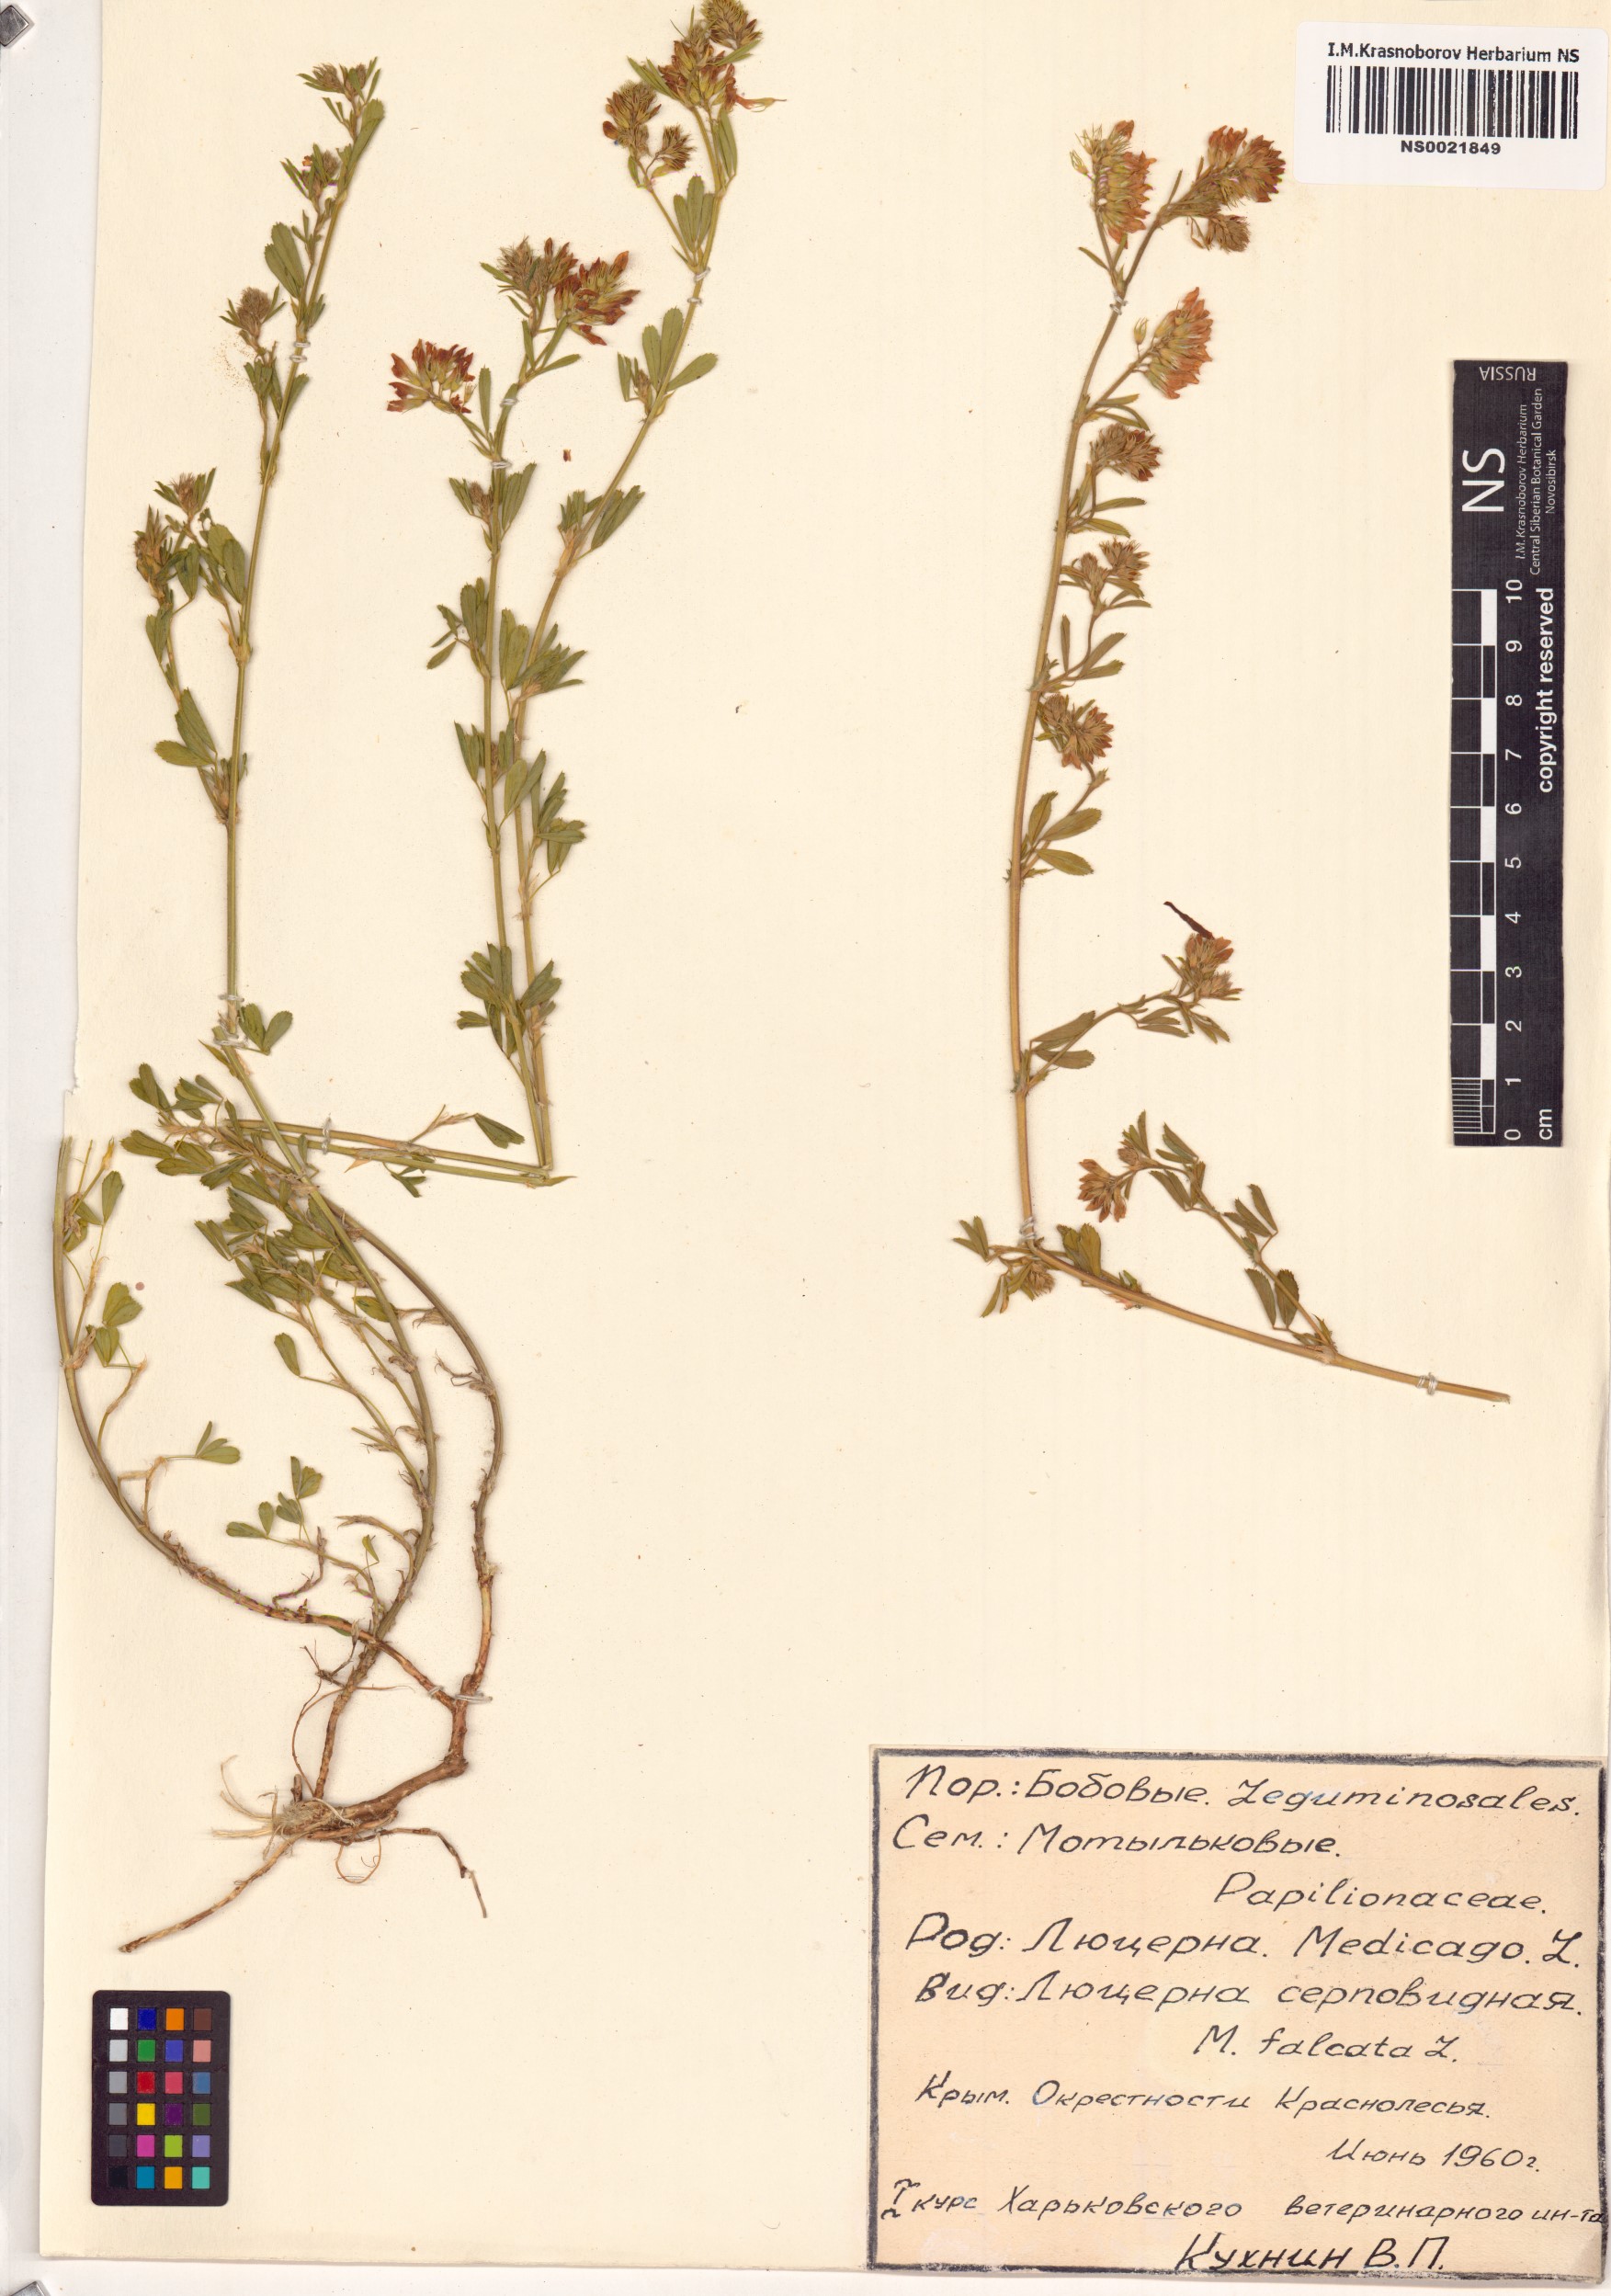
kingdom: Plantae
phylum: Tracheophyta
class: Magnoliopsida
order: Fabales
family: Fabaceae
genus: Medicago
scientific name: Medicago falcata
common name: Sickle medick
